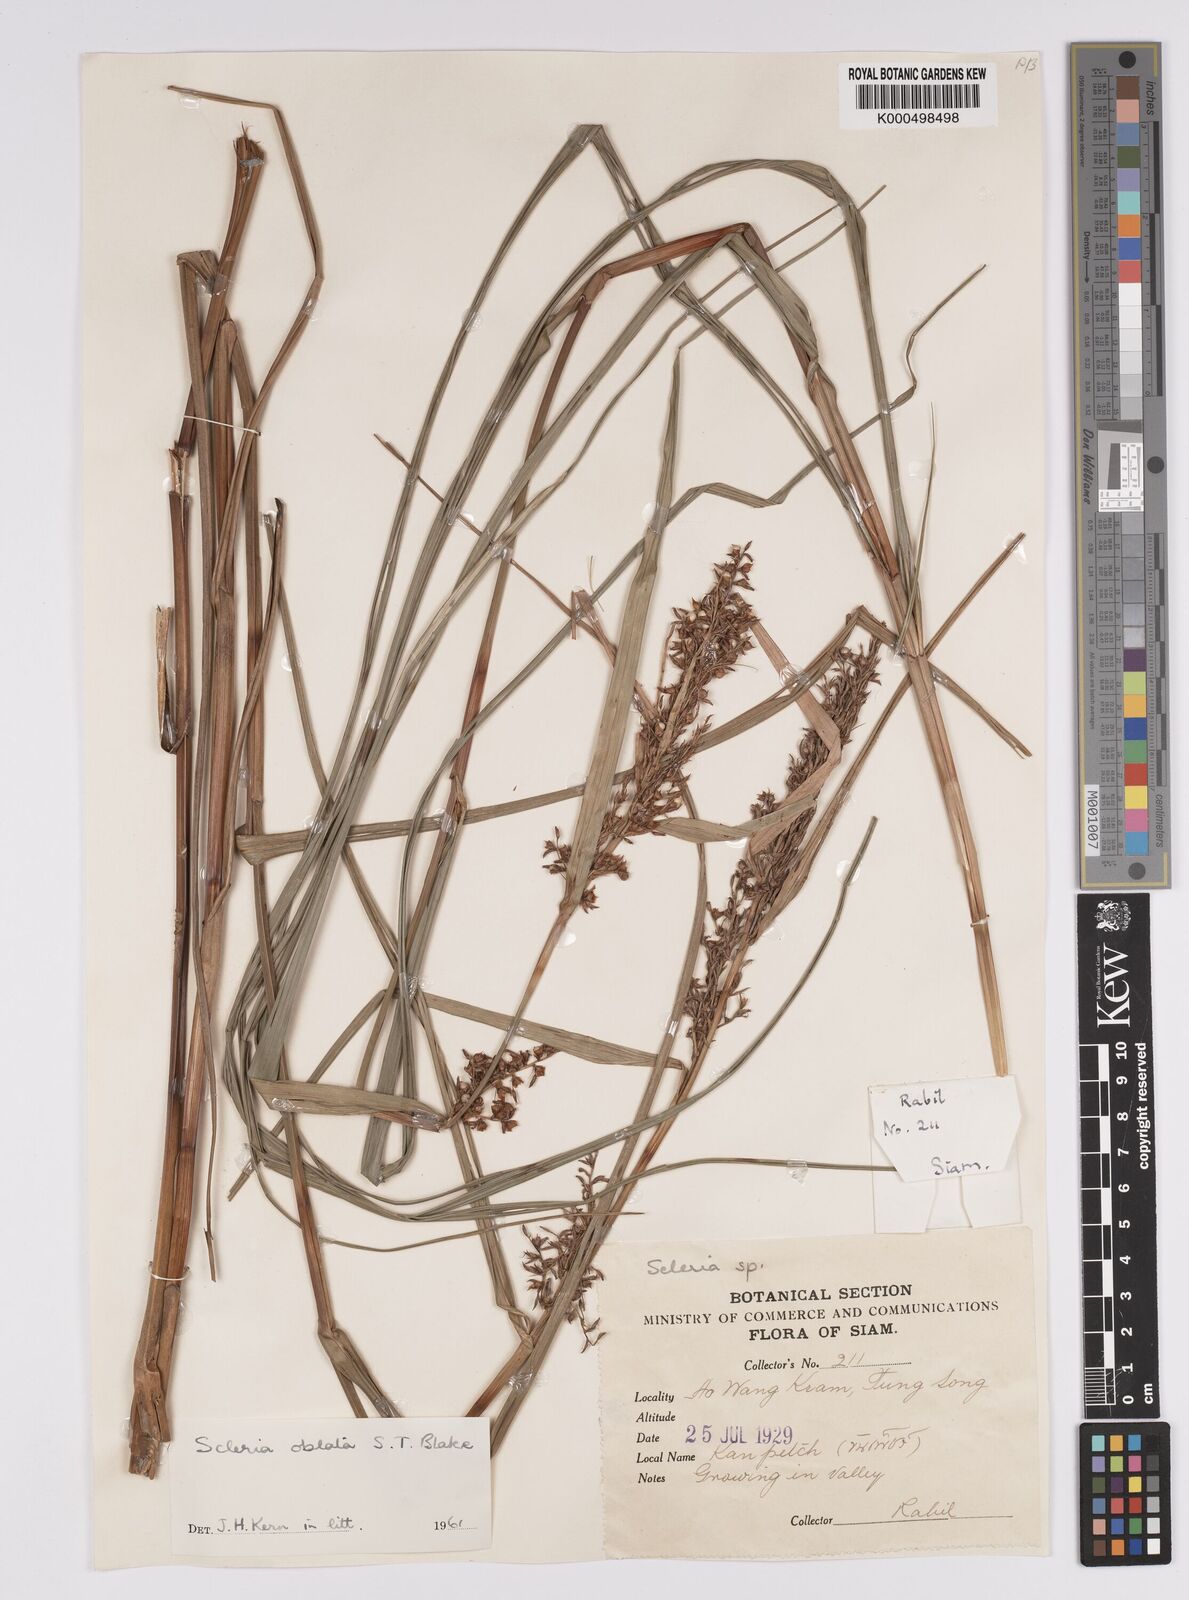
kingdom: Plantae
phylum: Tracheophyta
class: Liliopsida
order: Poales
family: Cyperaceae
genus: Scleria
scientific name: Scleria oblata
